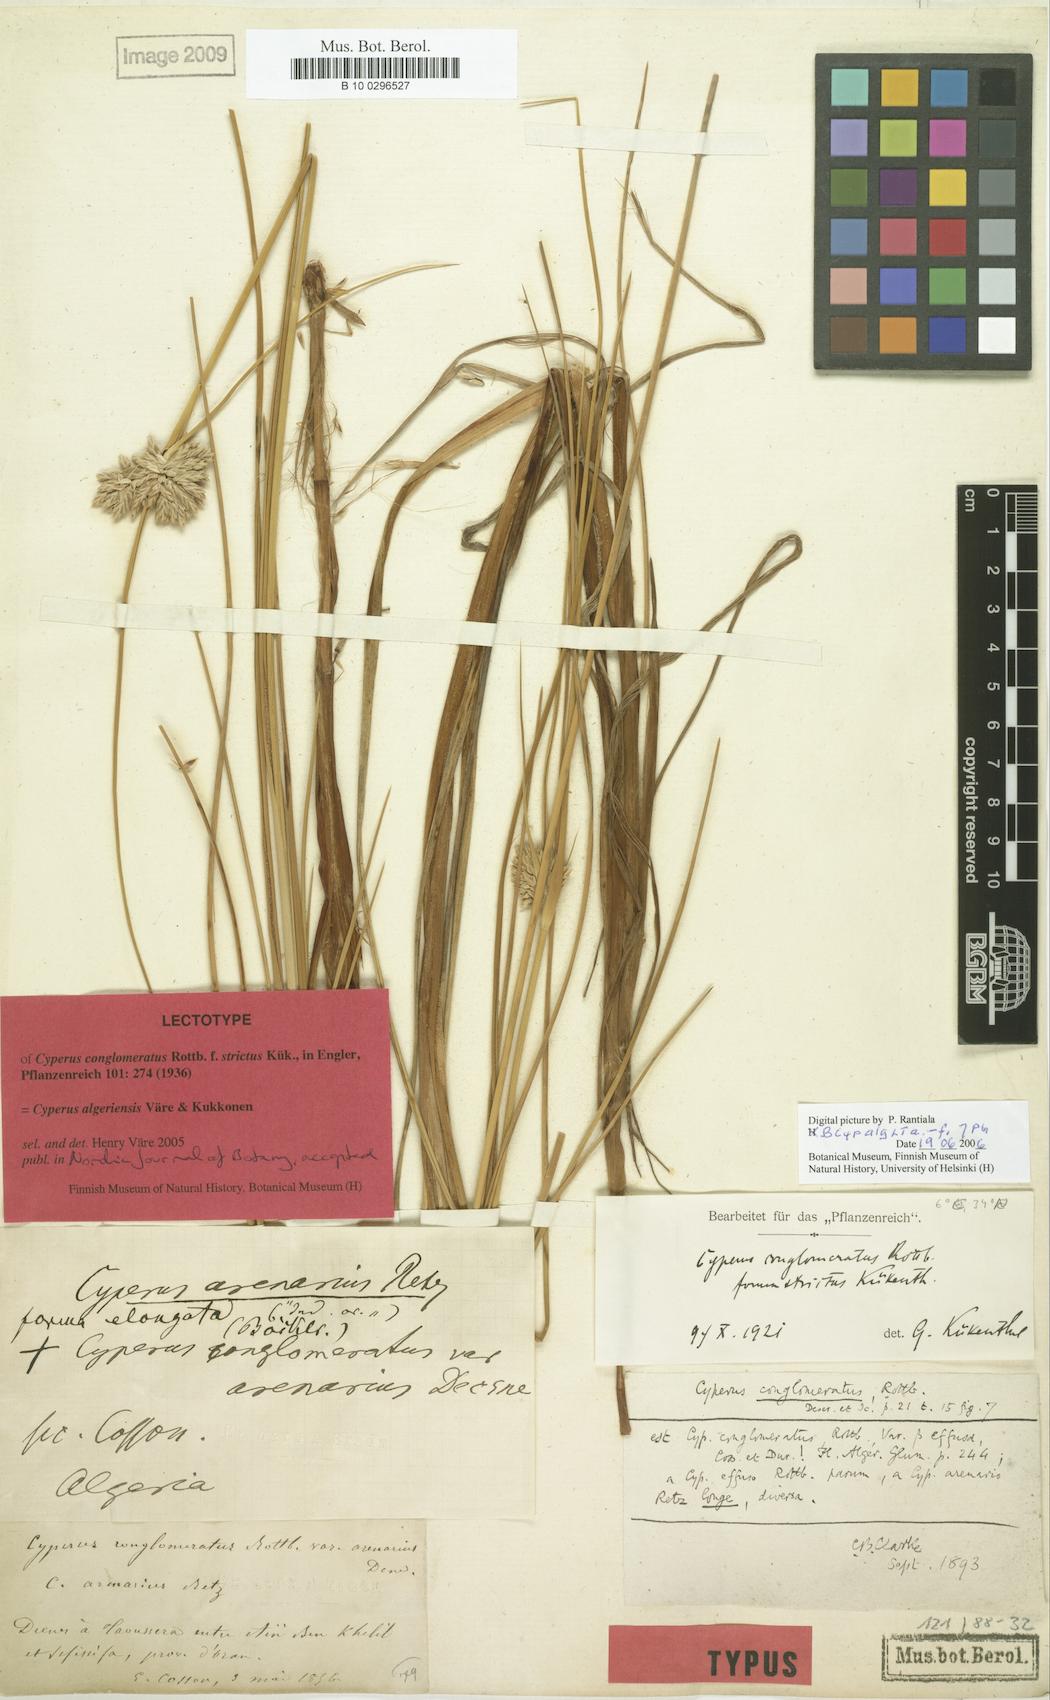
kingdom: Plantae
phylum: Tracheophyta
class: Liliopsida
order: Poales
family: Cyperaceae
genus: Cyperus
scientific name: Cyperus algeriensis
